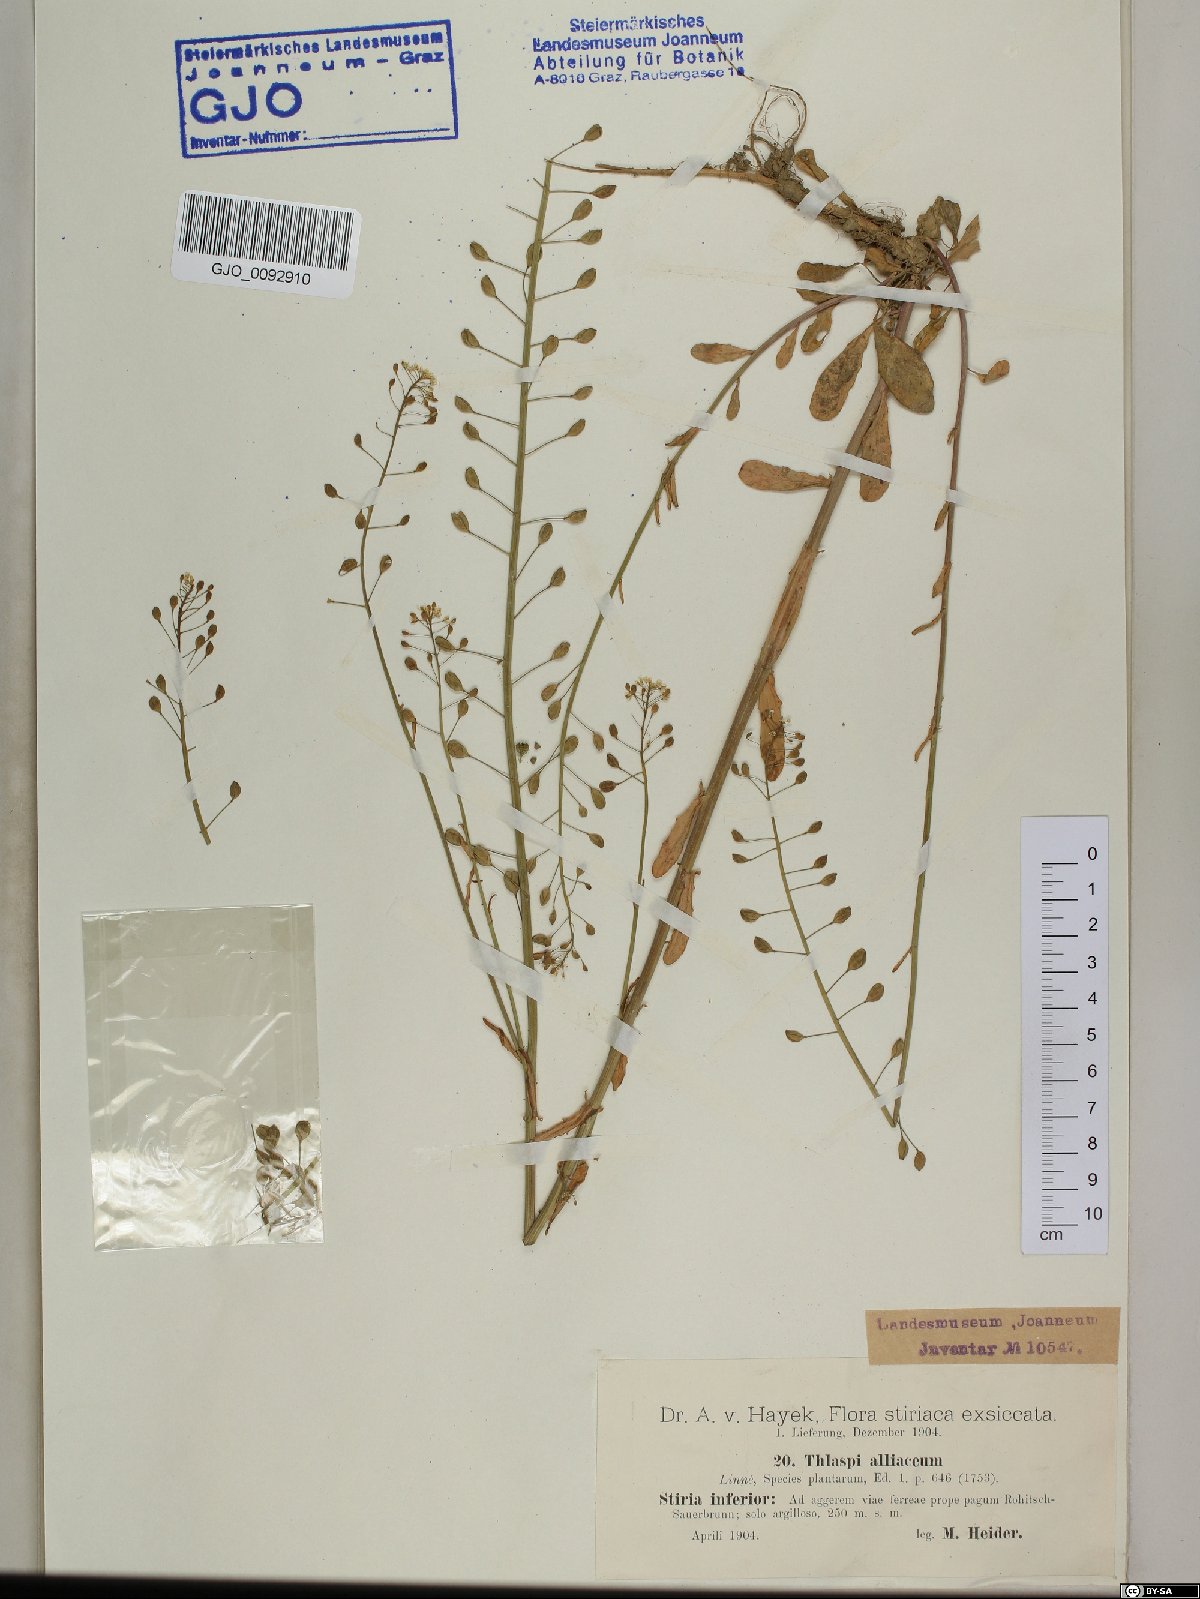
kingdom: Plantae
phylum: Tracheophyta
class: Magnoliopsida
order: Brassicales
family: Brassicaceae
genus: Mummenhoffia
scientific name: Mummenhoffia alliacea
